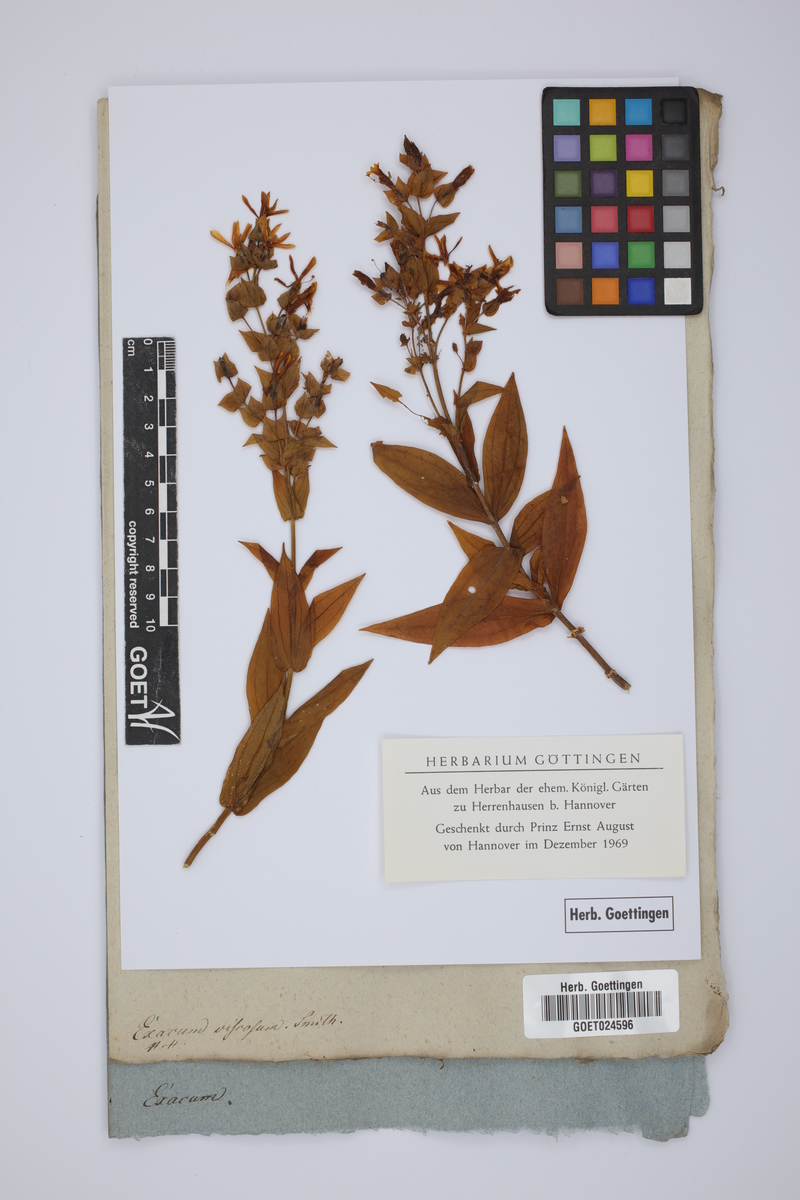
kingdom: Plantae
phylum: Tracheophyta
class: Magnoliopsida
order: Gentianales
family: Gentianaceae
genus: Ixanthus
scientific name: Ixanthus viscosus
